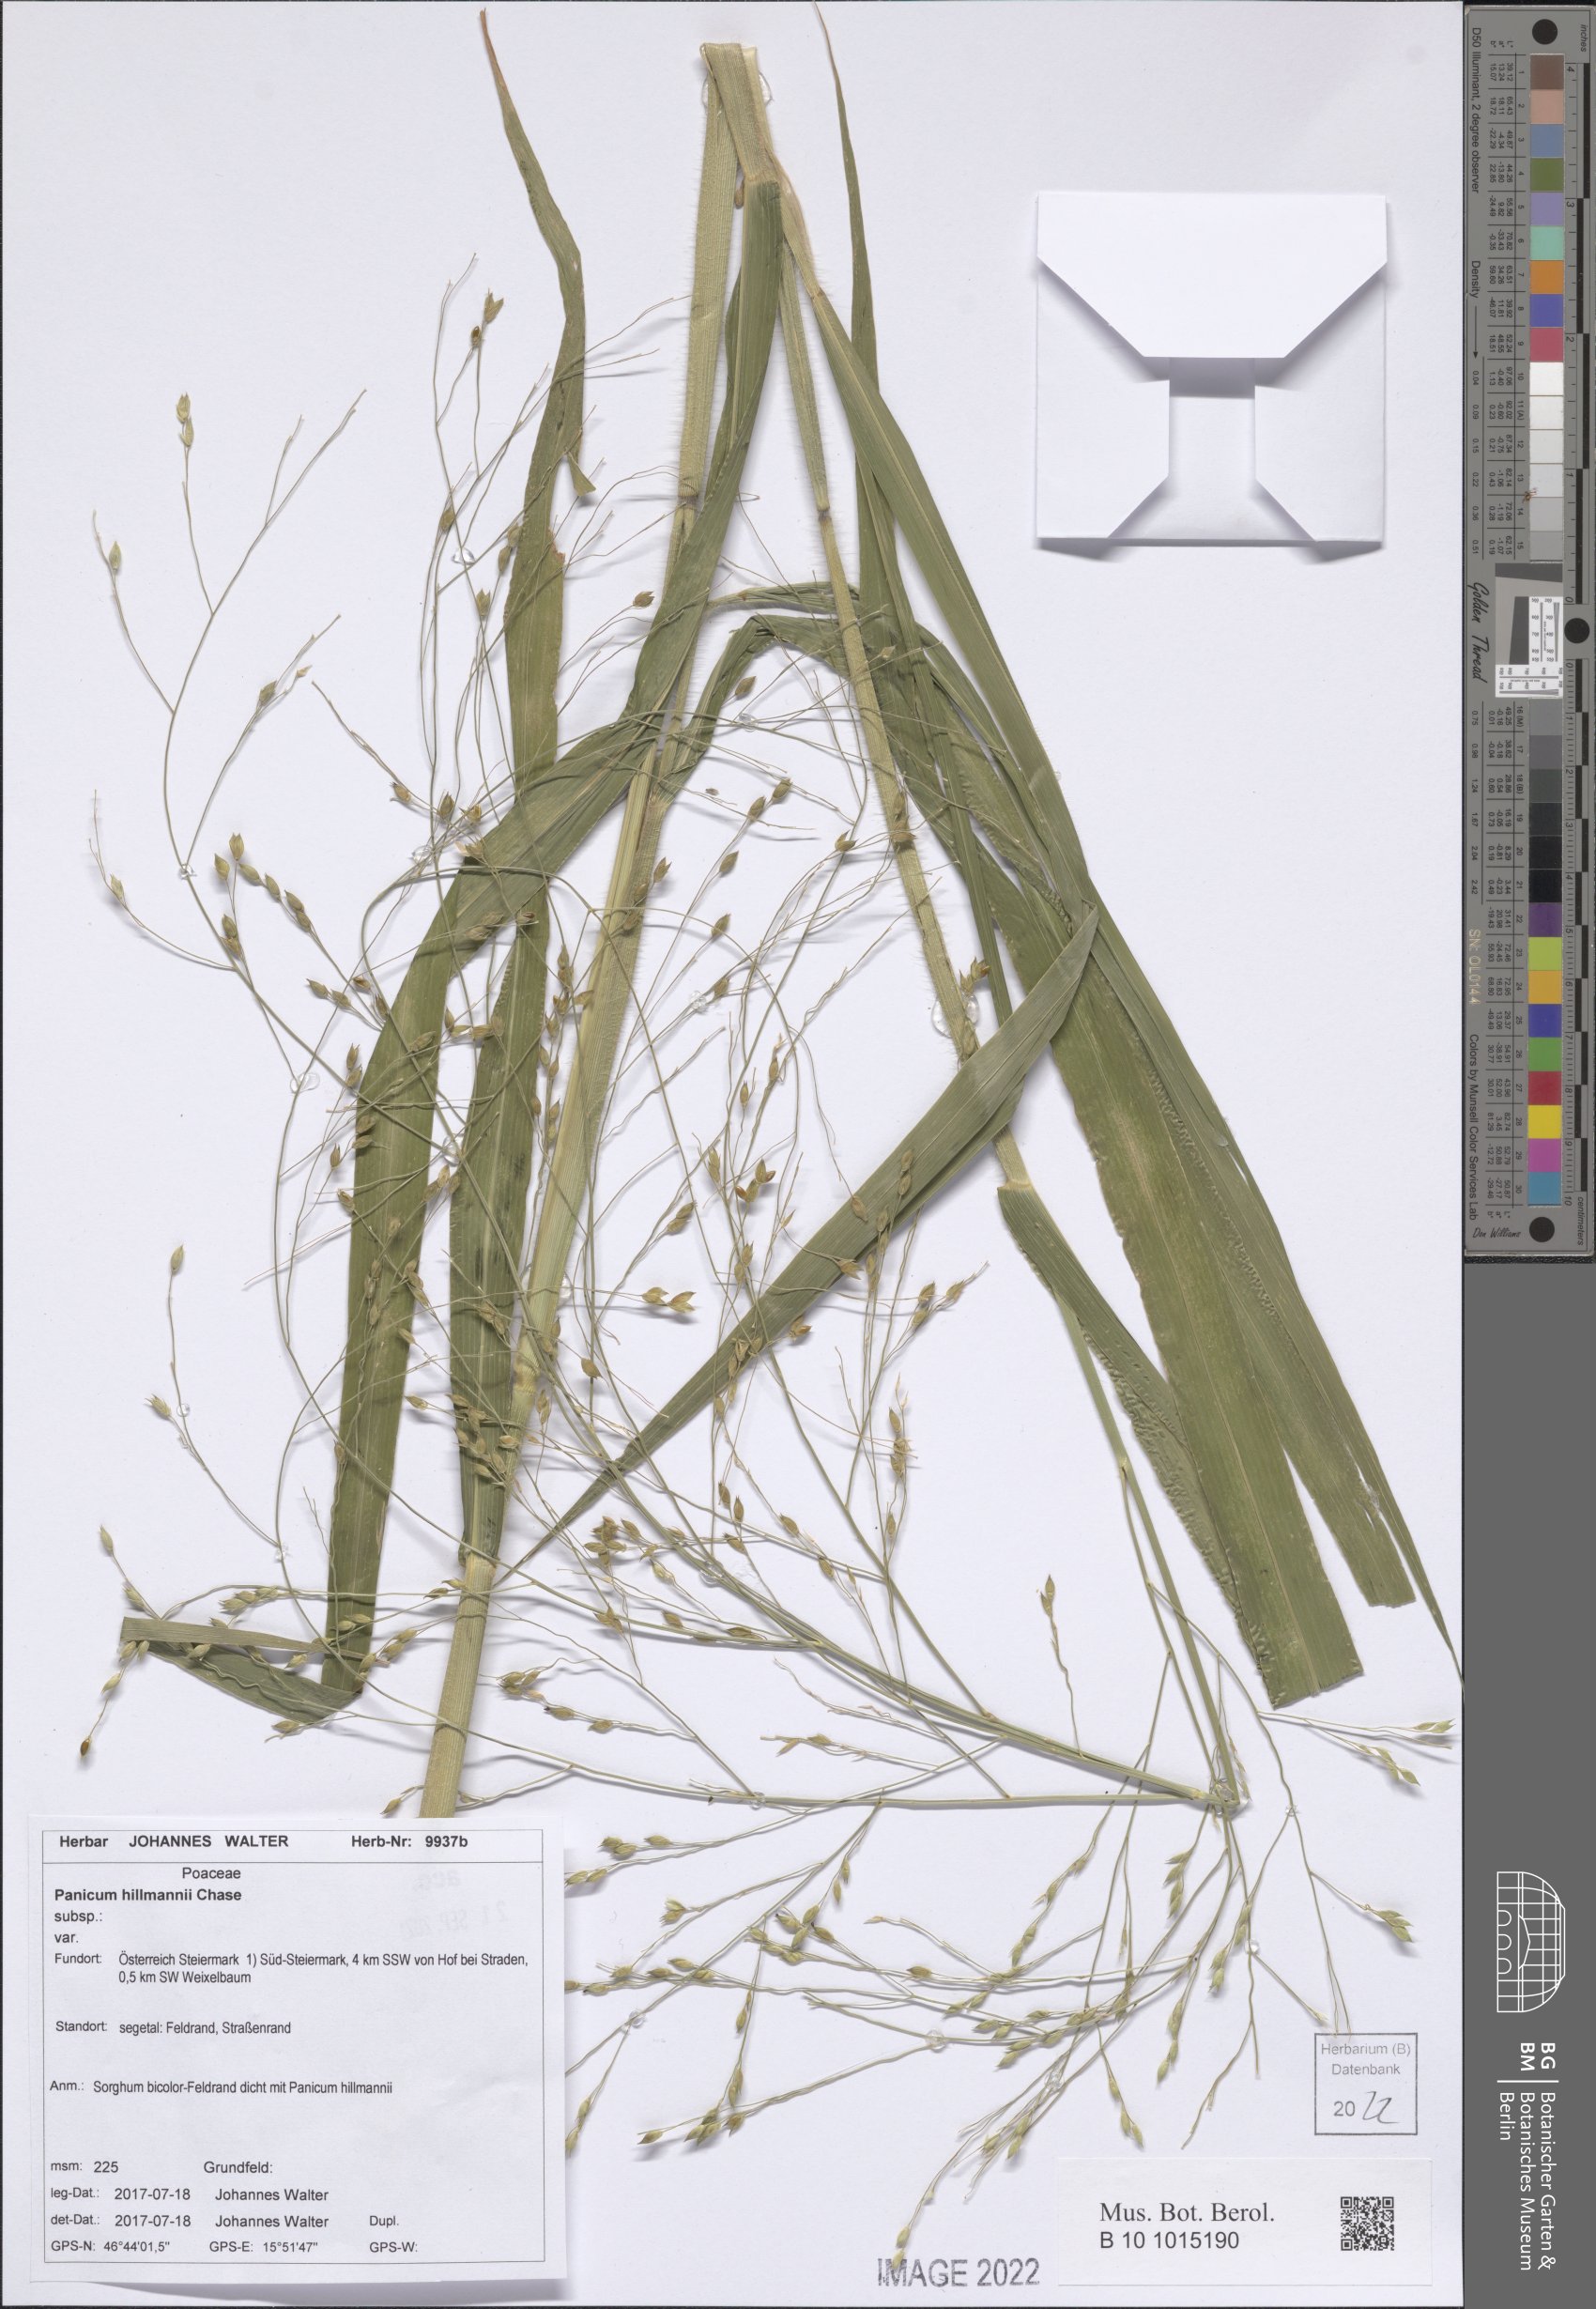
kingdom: Plantae
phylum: Tracheophyta
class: Liliopsida
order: Poales
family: Poaceae
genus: Panicum
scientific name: Panicum hillmanii
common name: Hillman's panicum
